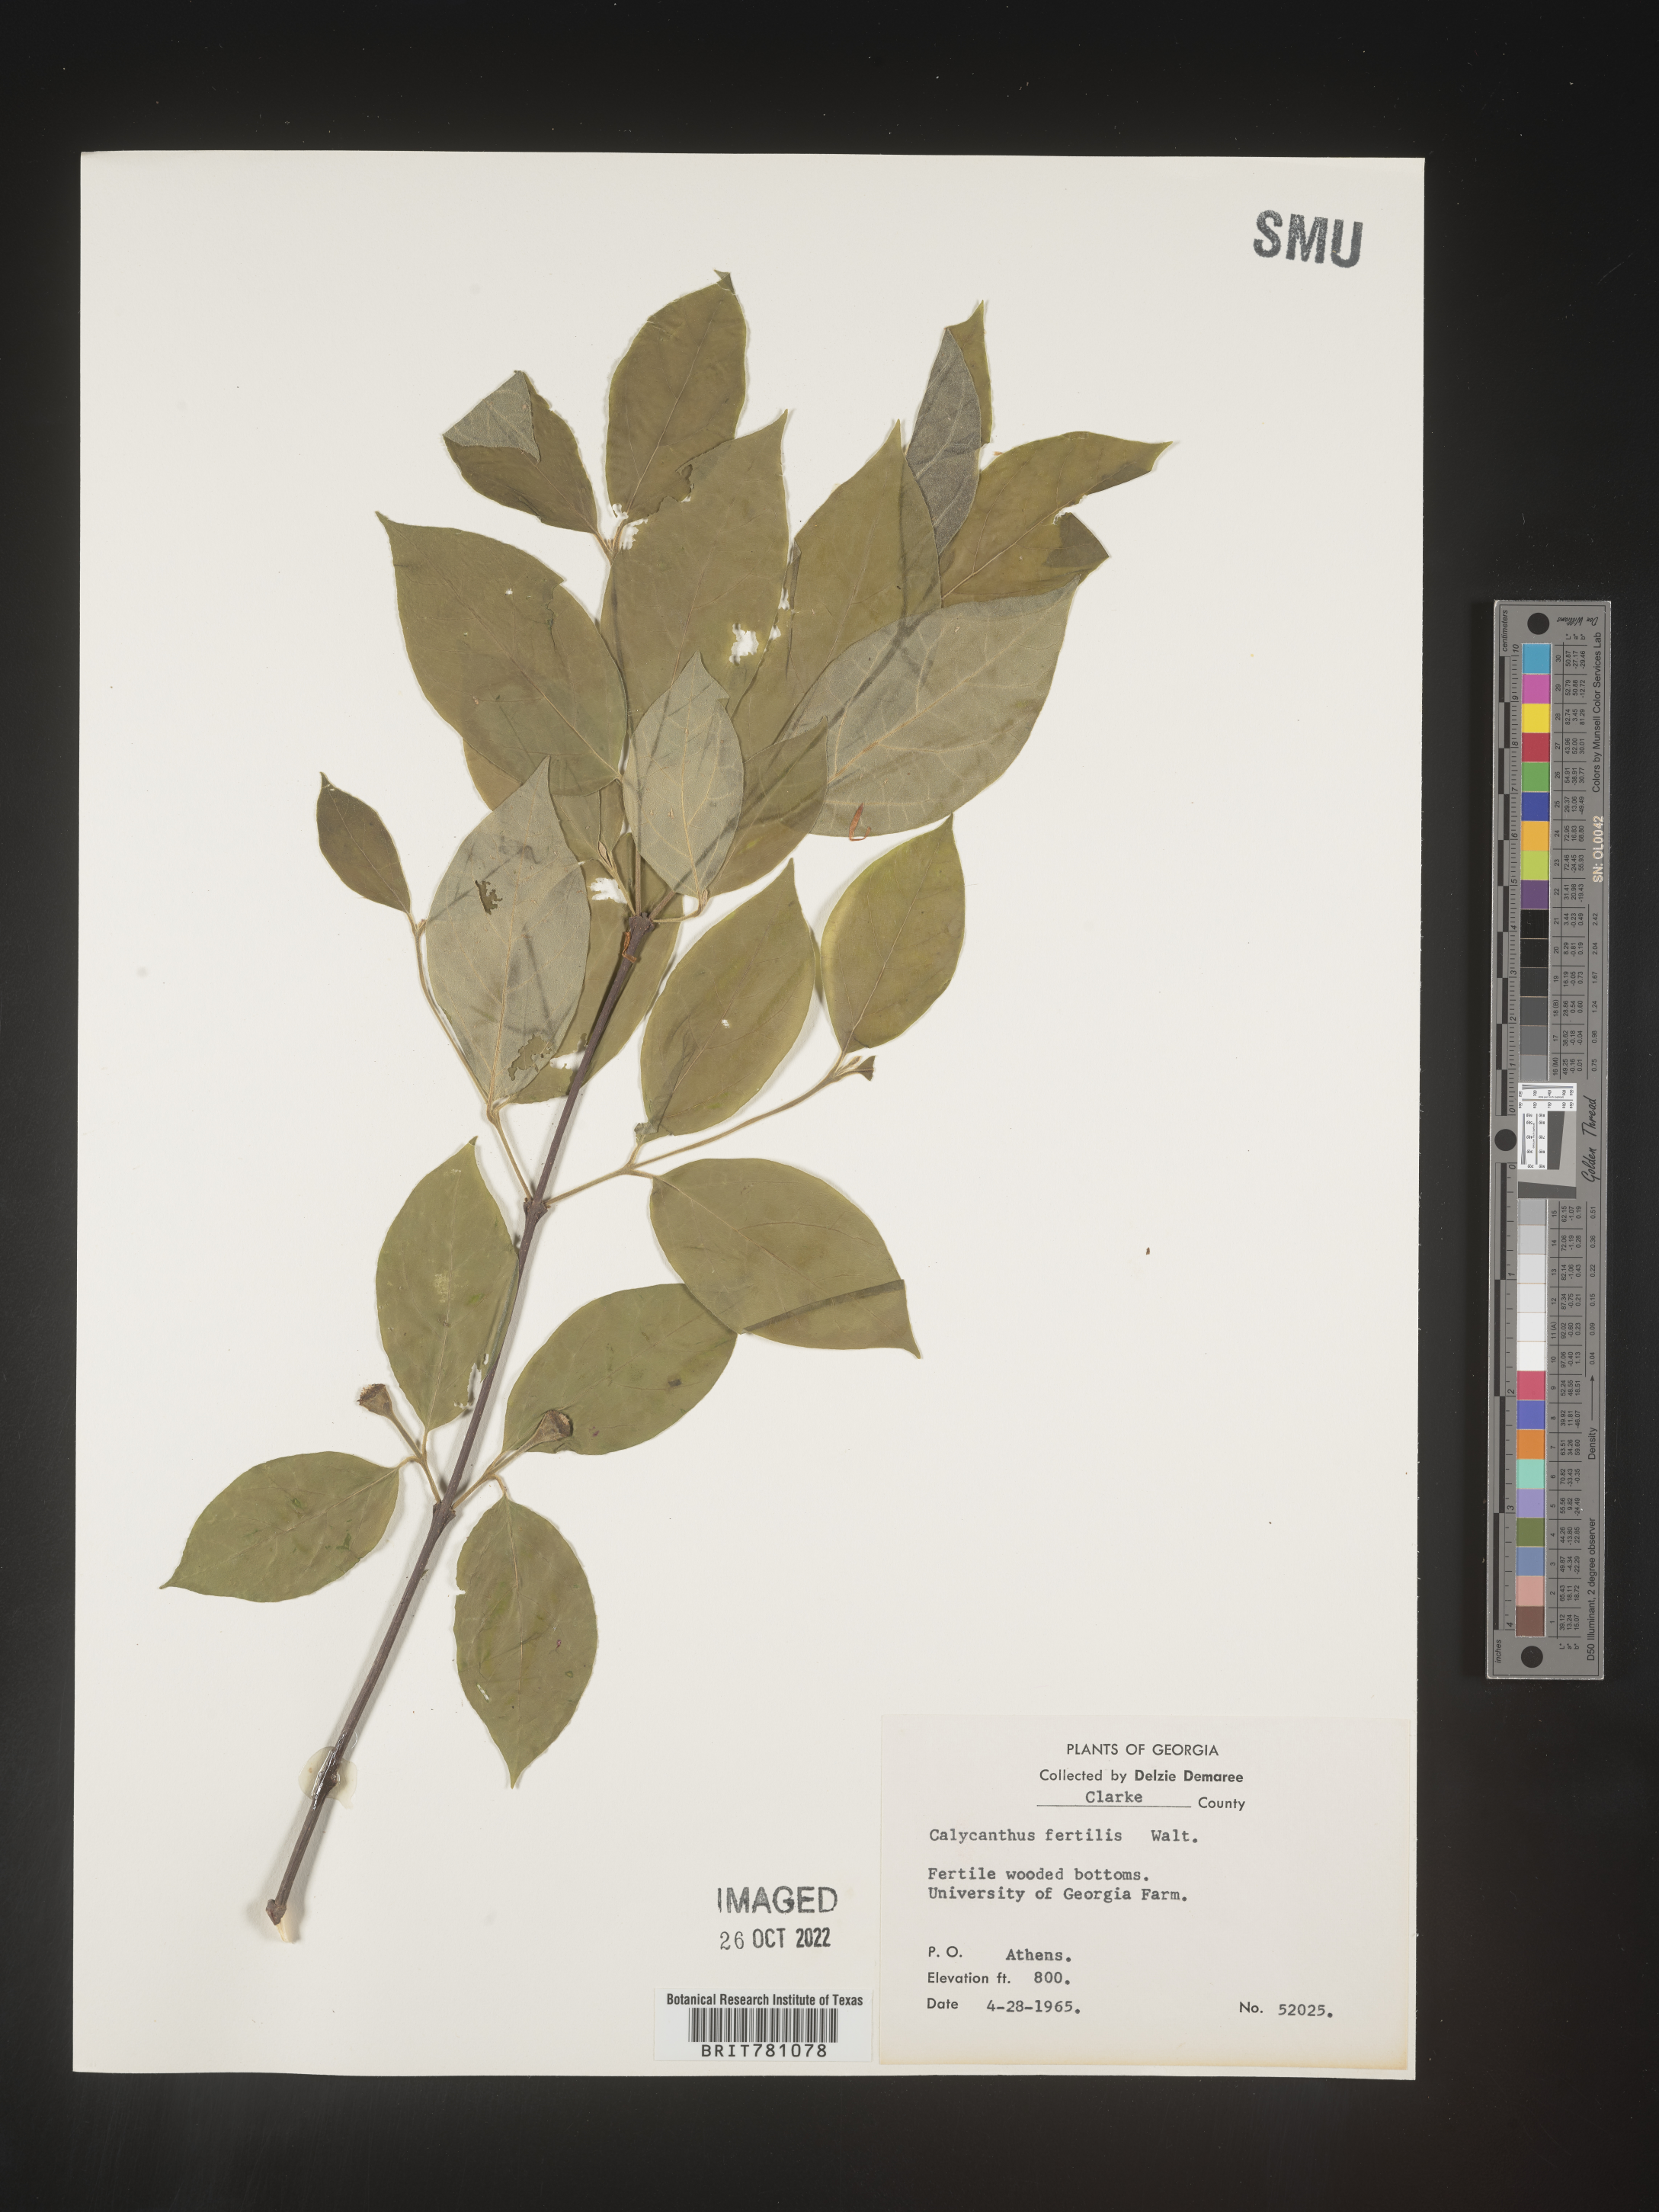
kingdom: Plantae
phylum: Tracheophyta
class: Magnoliopsida
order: Laurales
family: Calycanthaceae
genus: Calycanthus
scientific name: Calycanthus floridus
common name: Carolina-allspice
